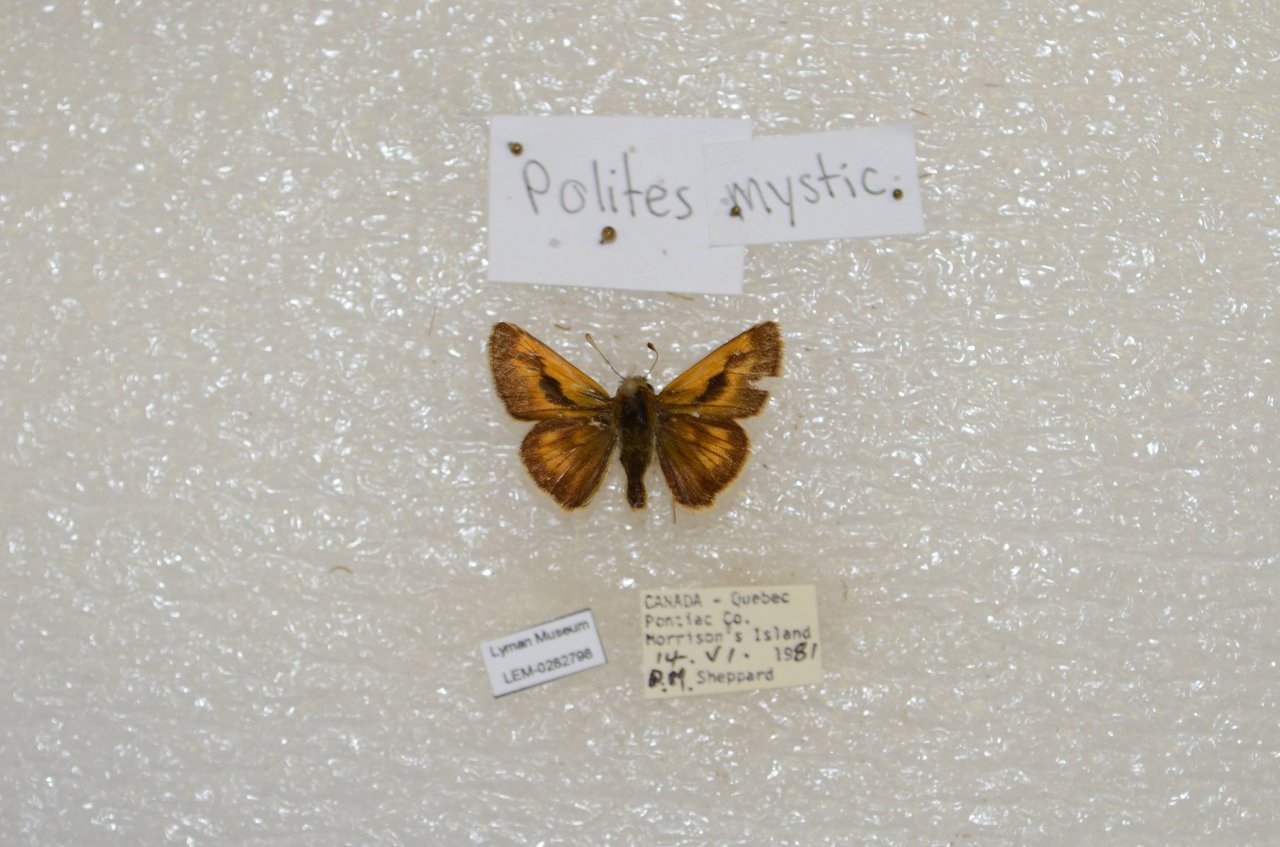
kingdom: Animalia
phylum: Arthropoda
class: Insecta
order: Lepidoptera
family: Hesperiidae
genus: Polites
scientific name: Polites
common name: Long Dash Skipper
